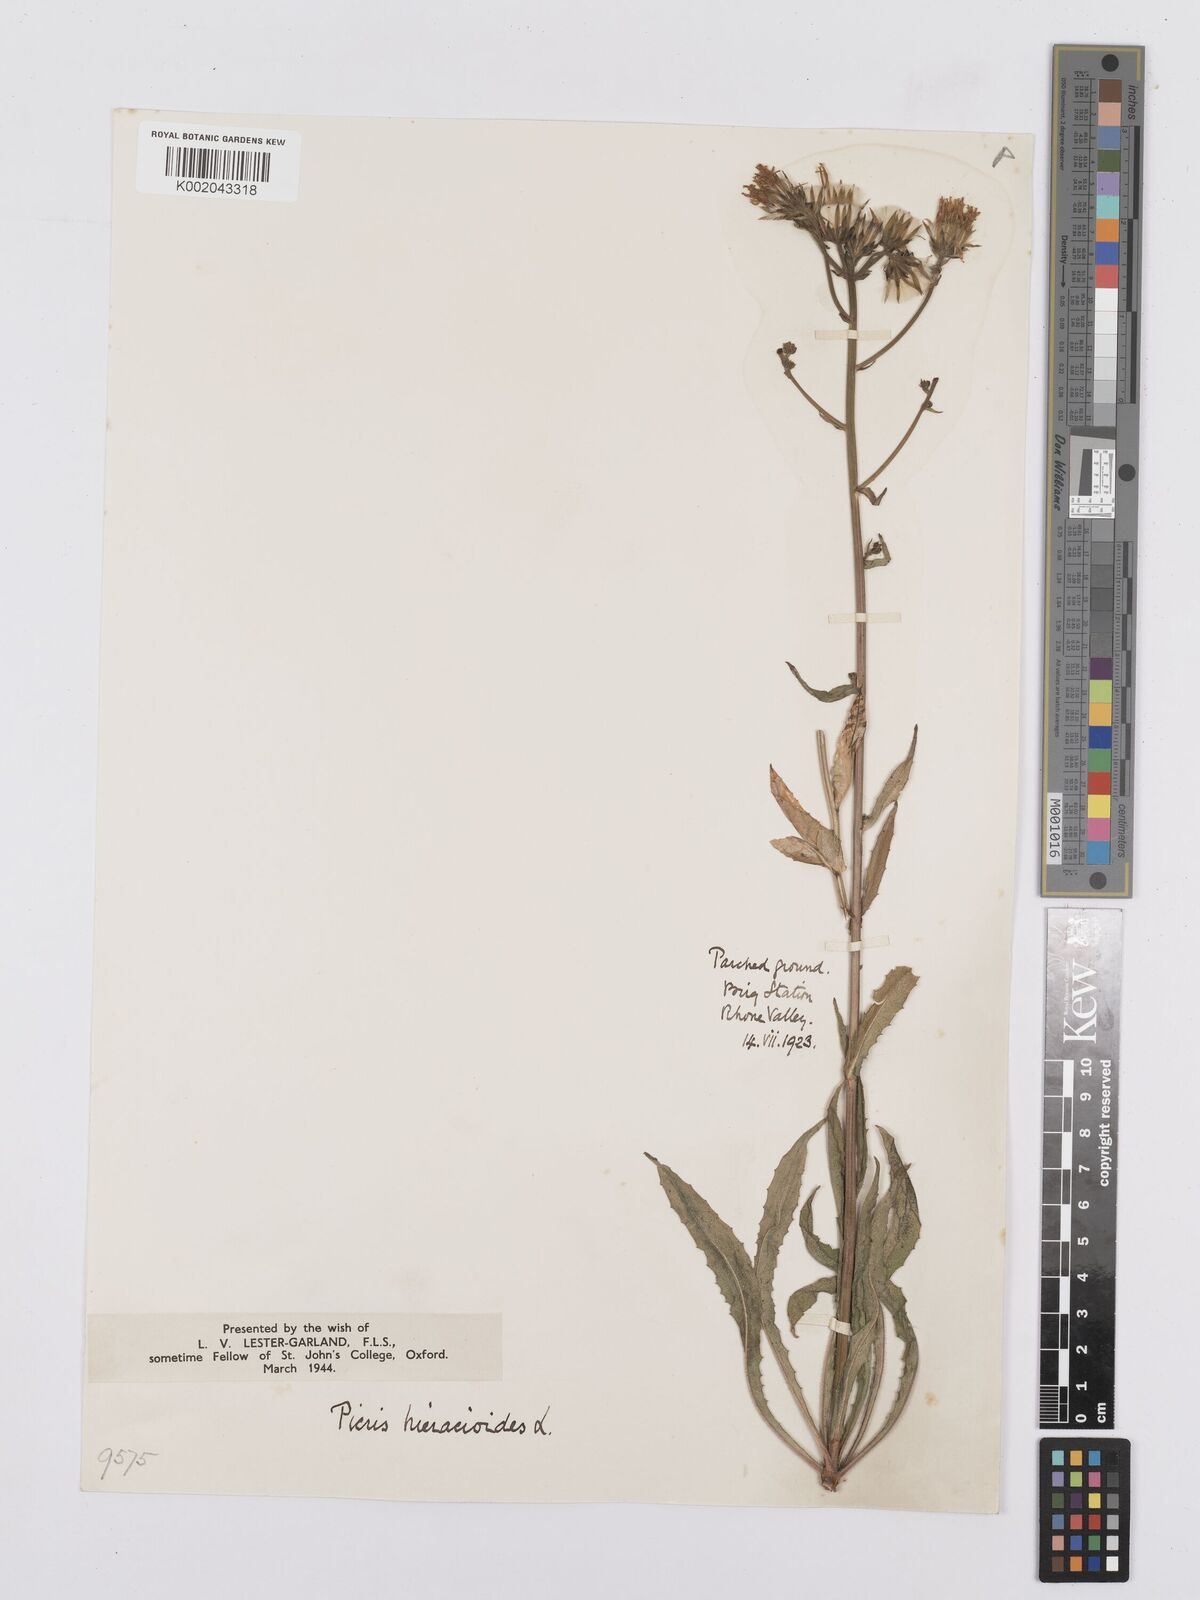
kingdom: Plantae
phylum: Tracheophyta
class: Magnoliopsida
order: Asterales
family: Asteraceae
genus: Picris
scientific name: Picris hieracioides
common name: Hawkweed oxtongue
